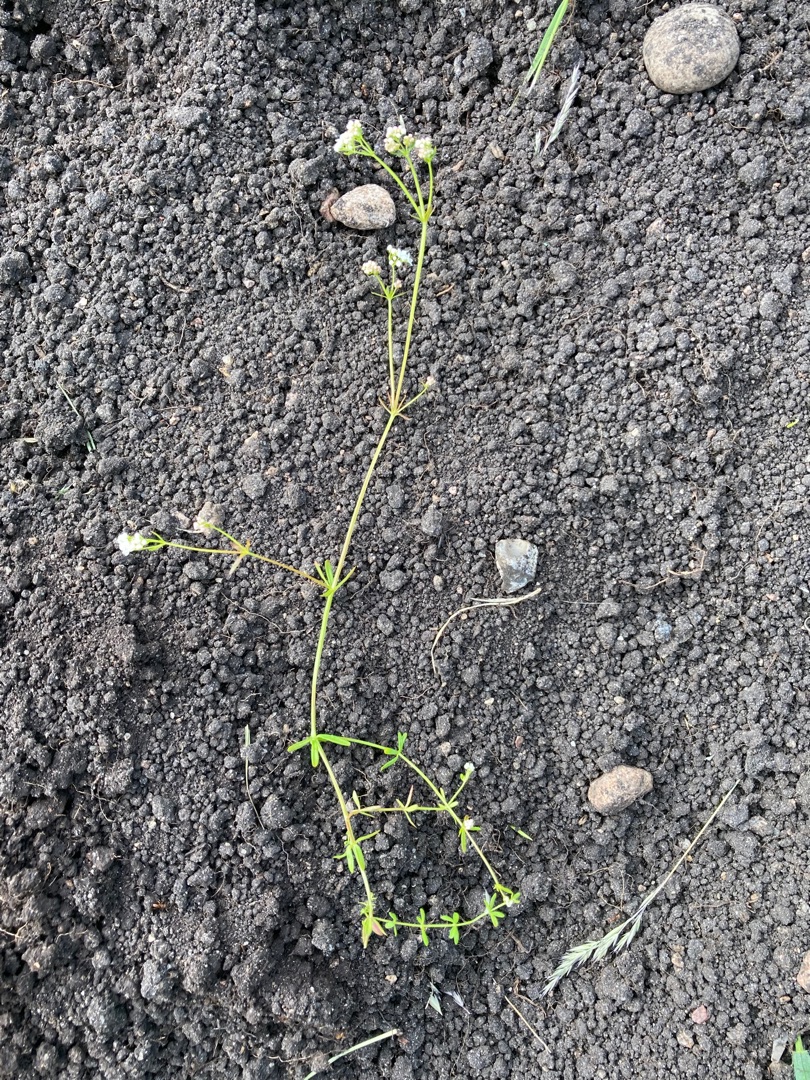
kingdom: Plantae
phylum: Tracheophyta
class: Magnoliopsida
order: Gentianales
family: Rubiaceae
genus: Galium
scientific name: Galium palustre
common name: Kær-snerre
